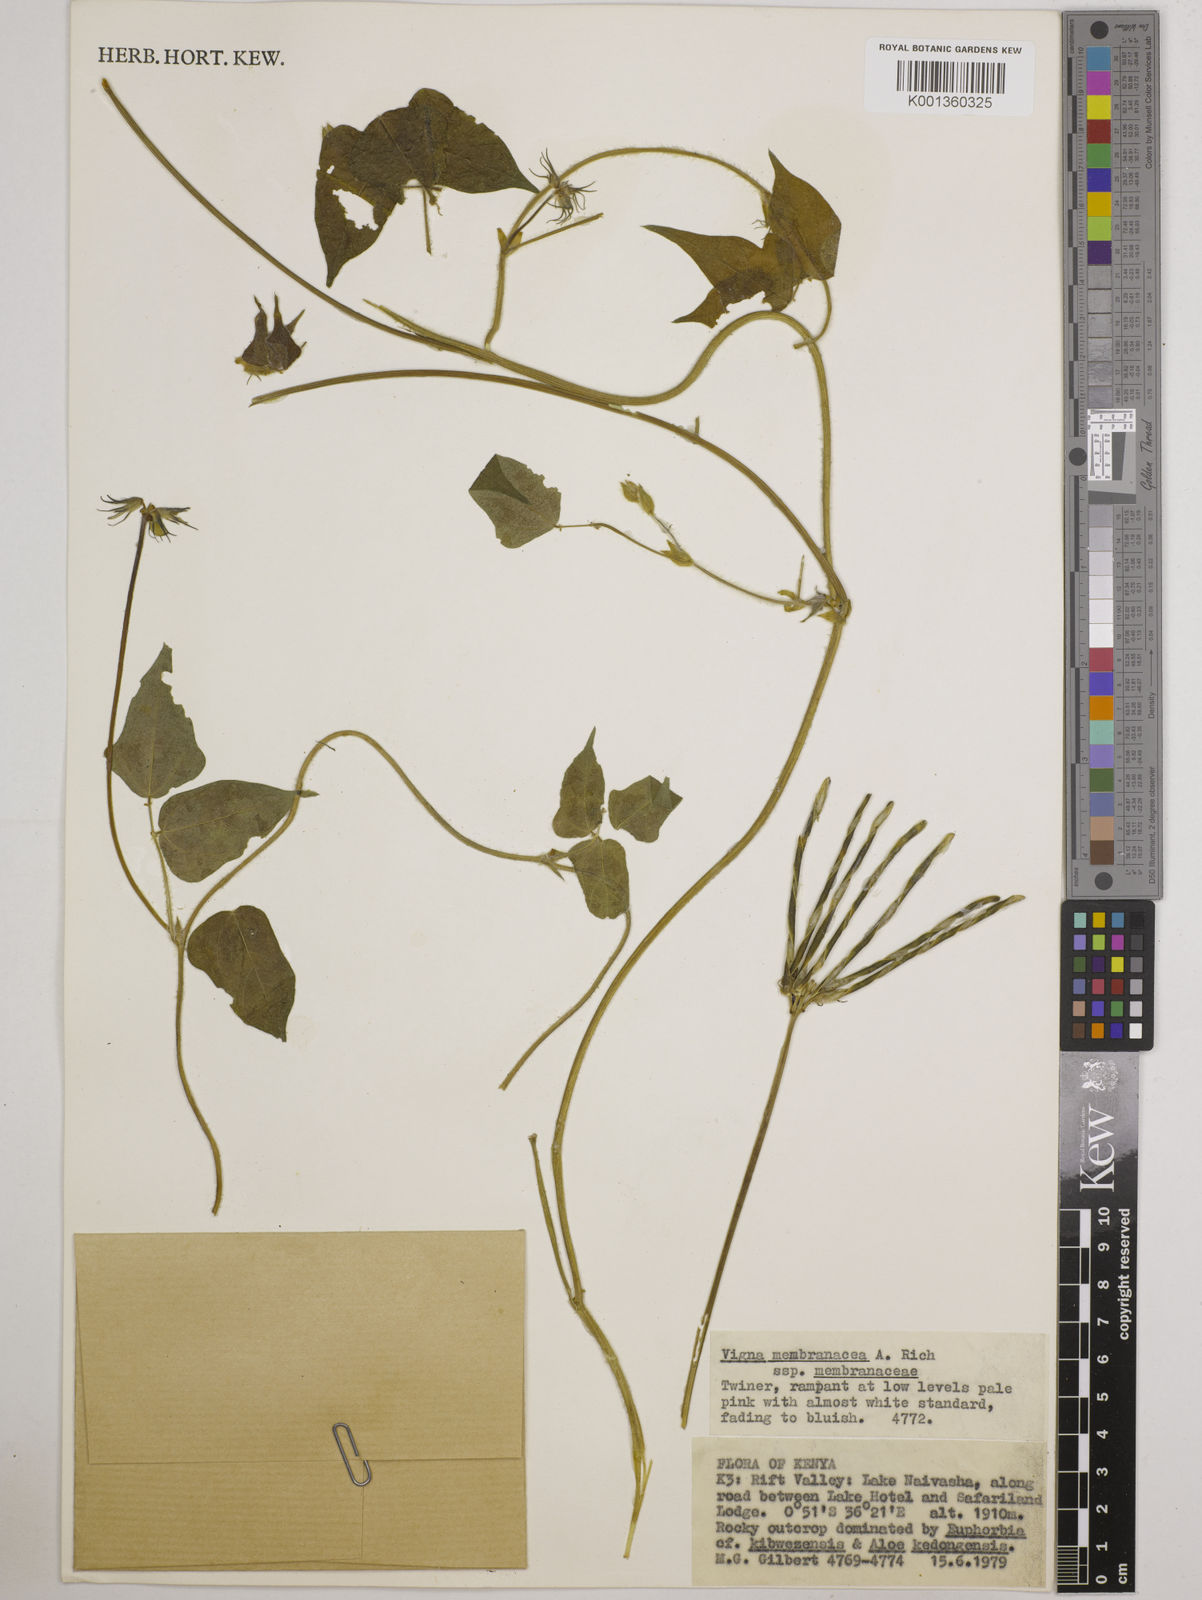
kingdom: Plantae
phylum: Tracheophyta
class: Magnoliopsida
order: Fabales
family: Fabaceae
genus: Vigna
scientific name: Vigna membranacea
